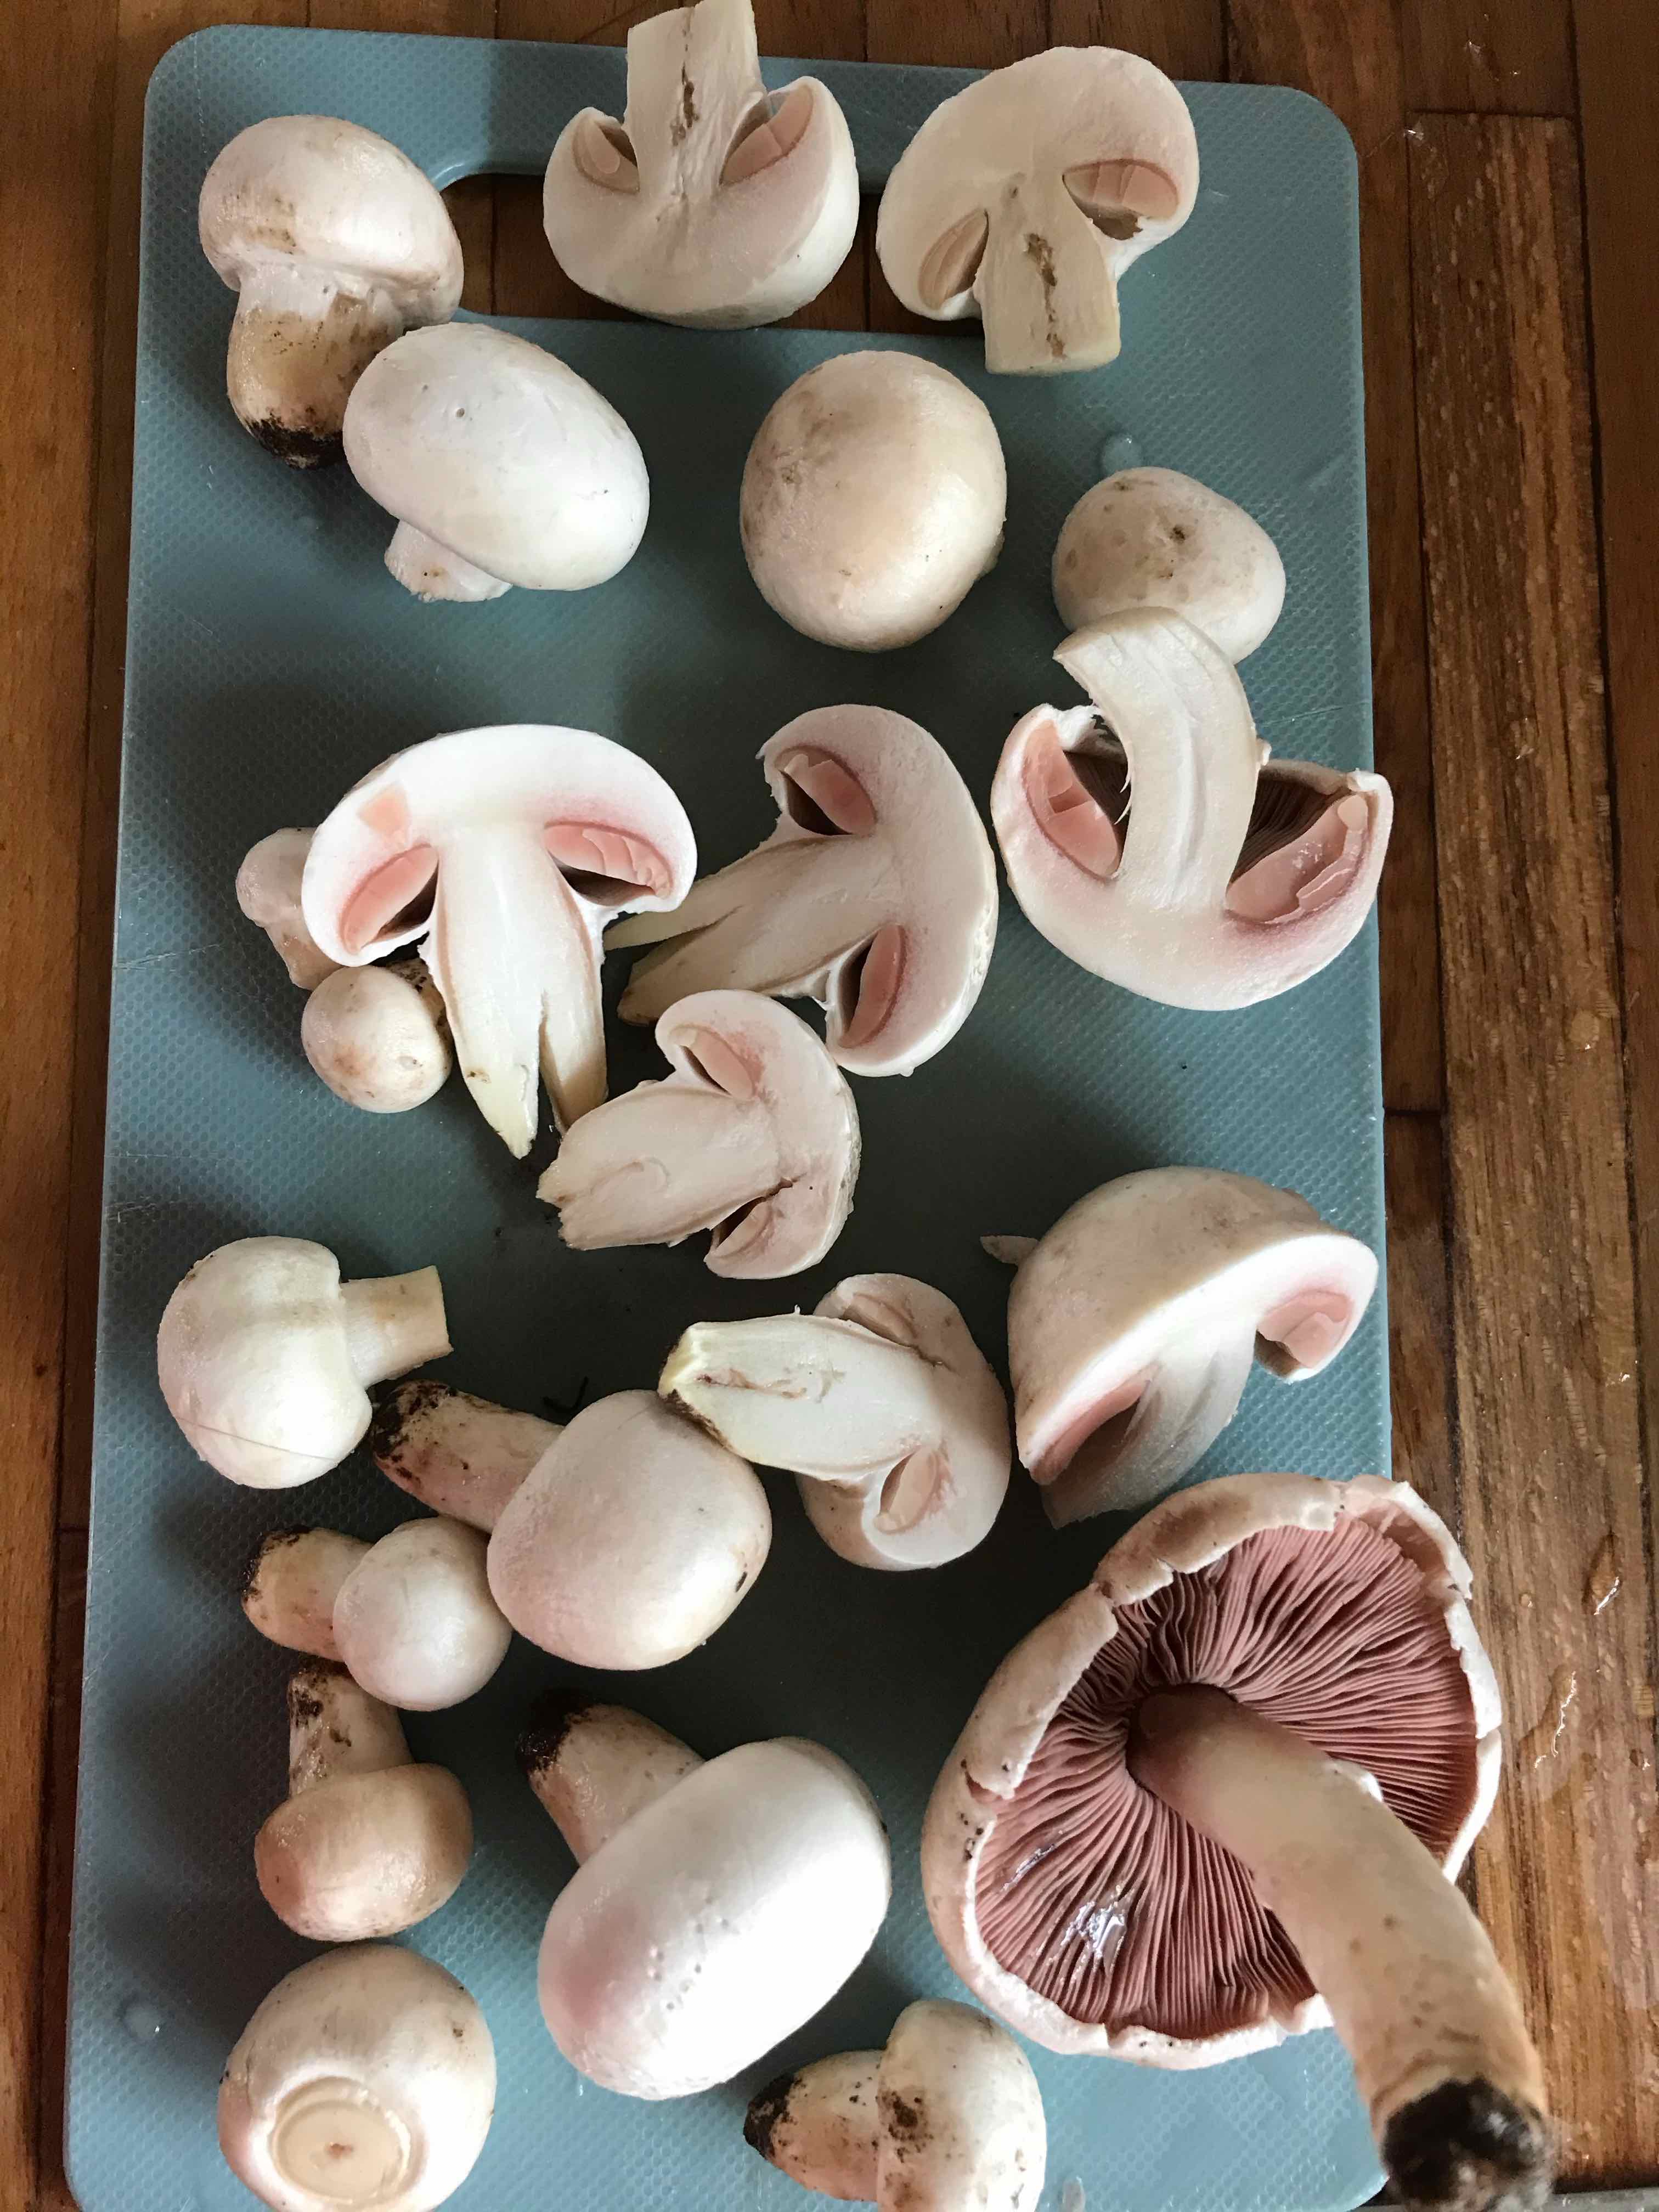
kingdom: Fungi
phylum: Basidiomycota
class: Agaricomycetes
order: Agaricales
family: Agaricaceae
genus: Agaricus
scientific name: Agaricus campestris
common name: mark-champignon
